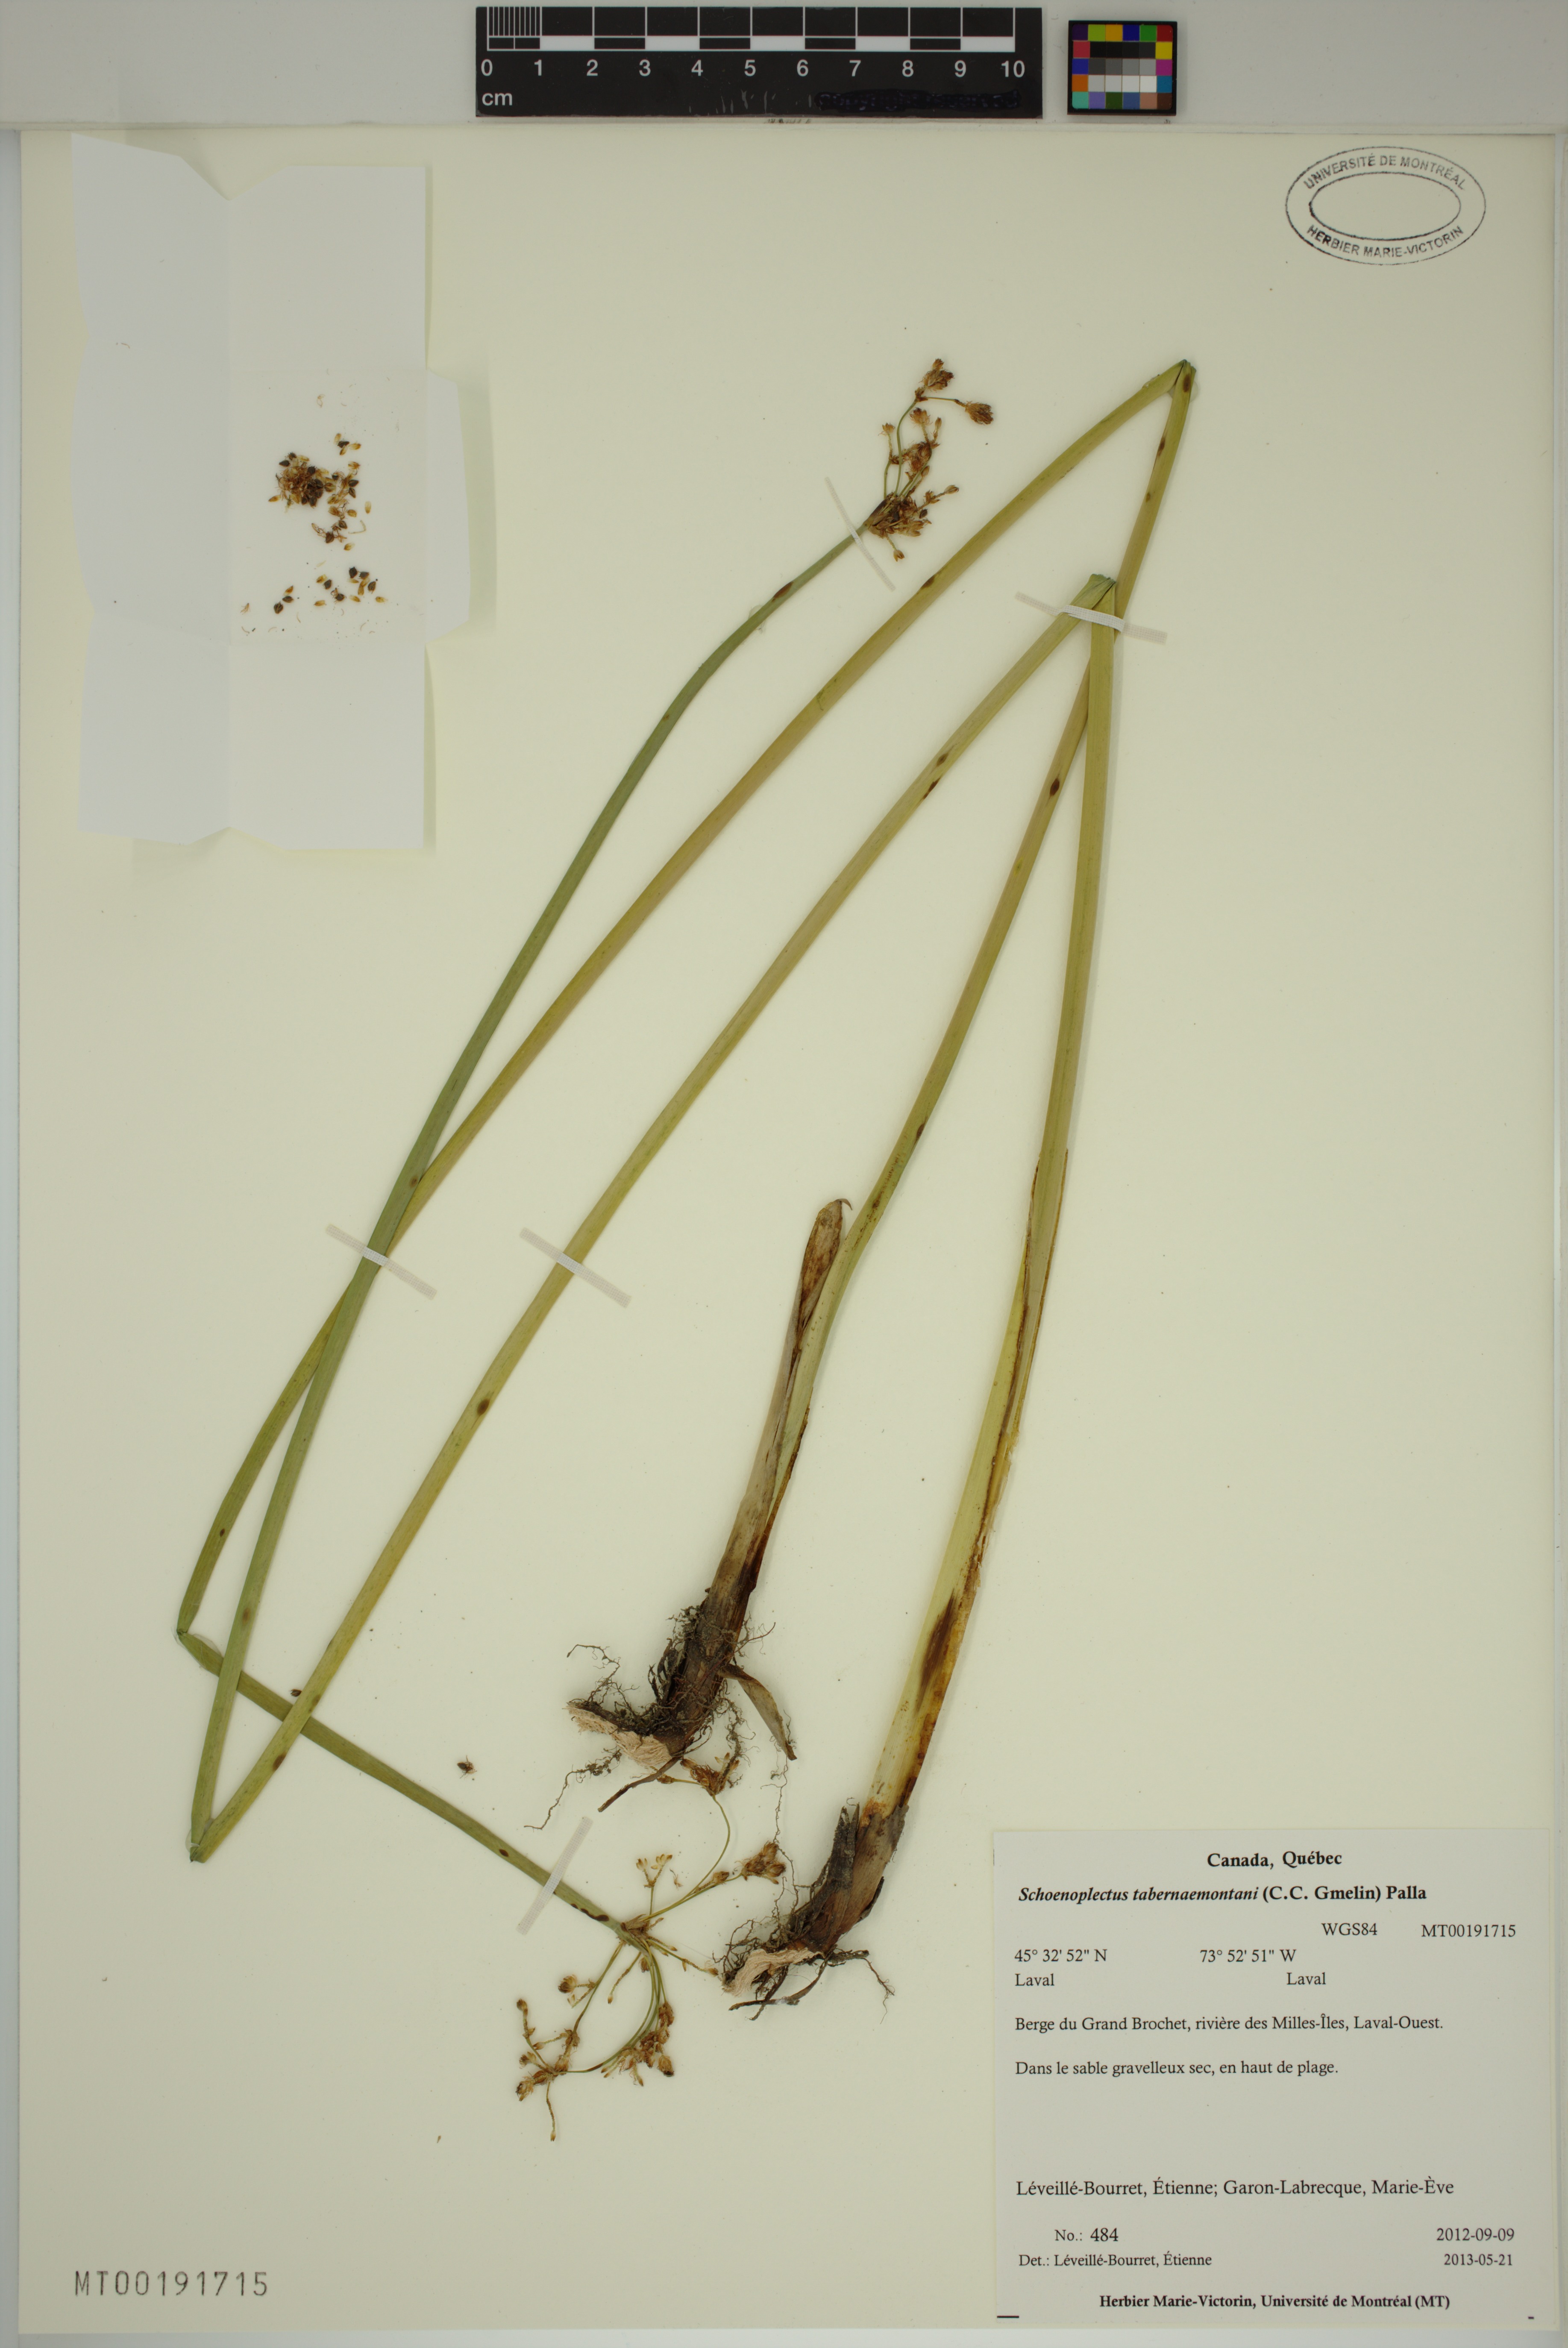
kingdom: Plantae
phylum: Tracheophyta
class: Liliopsida
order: Poales
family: Cyperaceae
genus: Schoenoplectus
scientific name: Schoenoplectus tabernaemontani
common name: Grey club-rush
